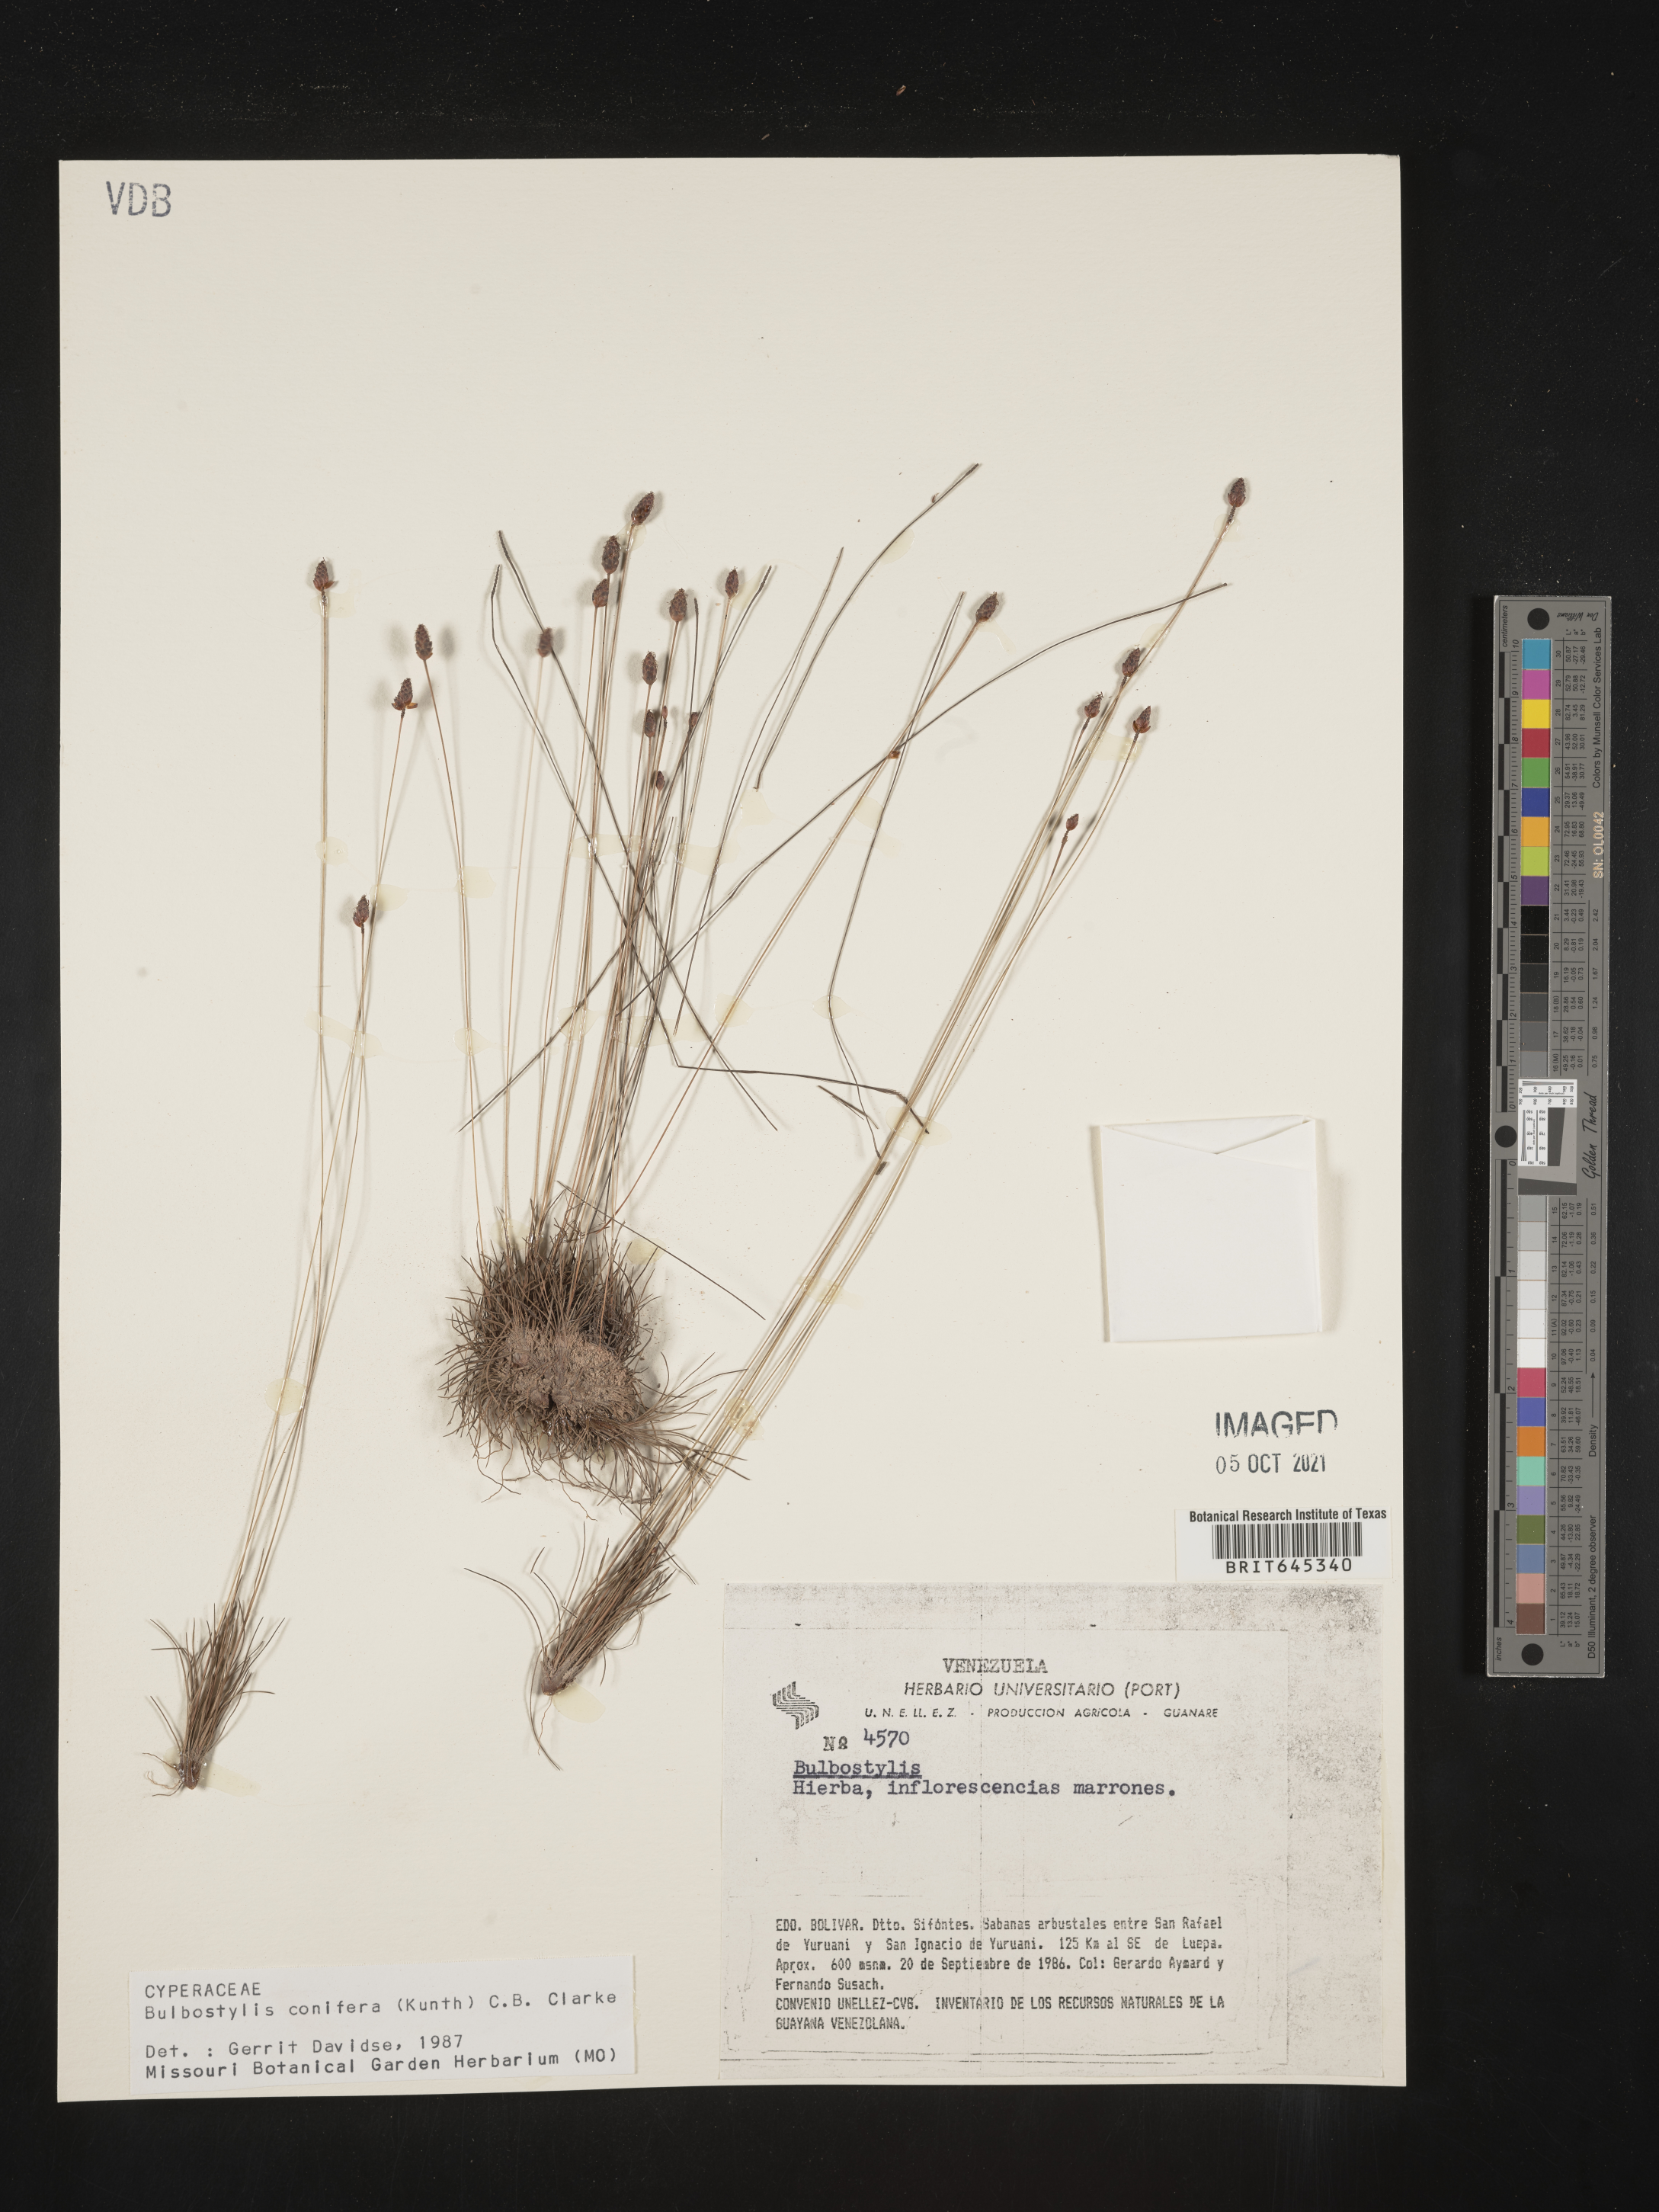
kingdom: Plantae
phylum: Tracheophyta
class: Liliopsida
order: Poales
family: Cyperaceae
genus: Bulbostylis
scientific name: Bulbostylis conifera
